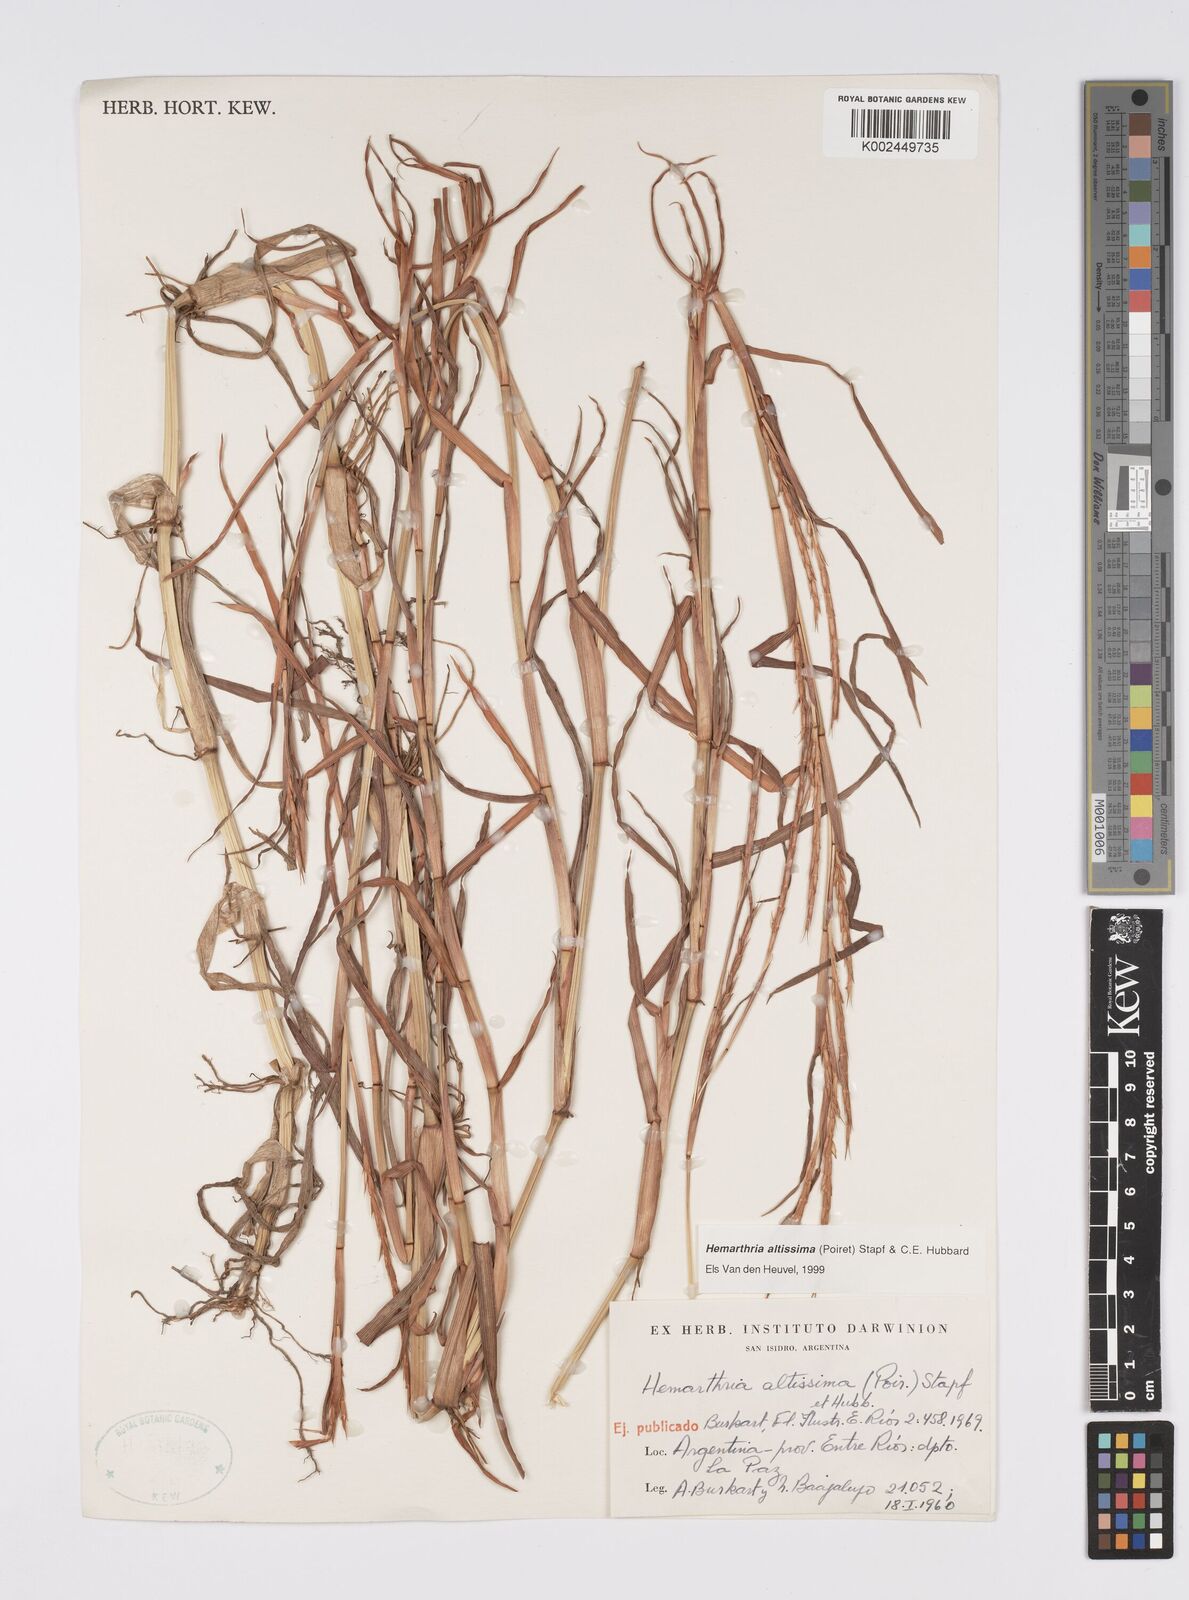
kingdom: Plantae
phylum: Tracheophyta
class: Liliopsida
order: Poales
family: Poaceae
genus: Hemarthria
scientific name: Hemarthria altissima
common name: African jointgrass
